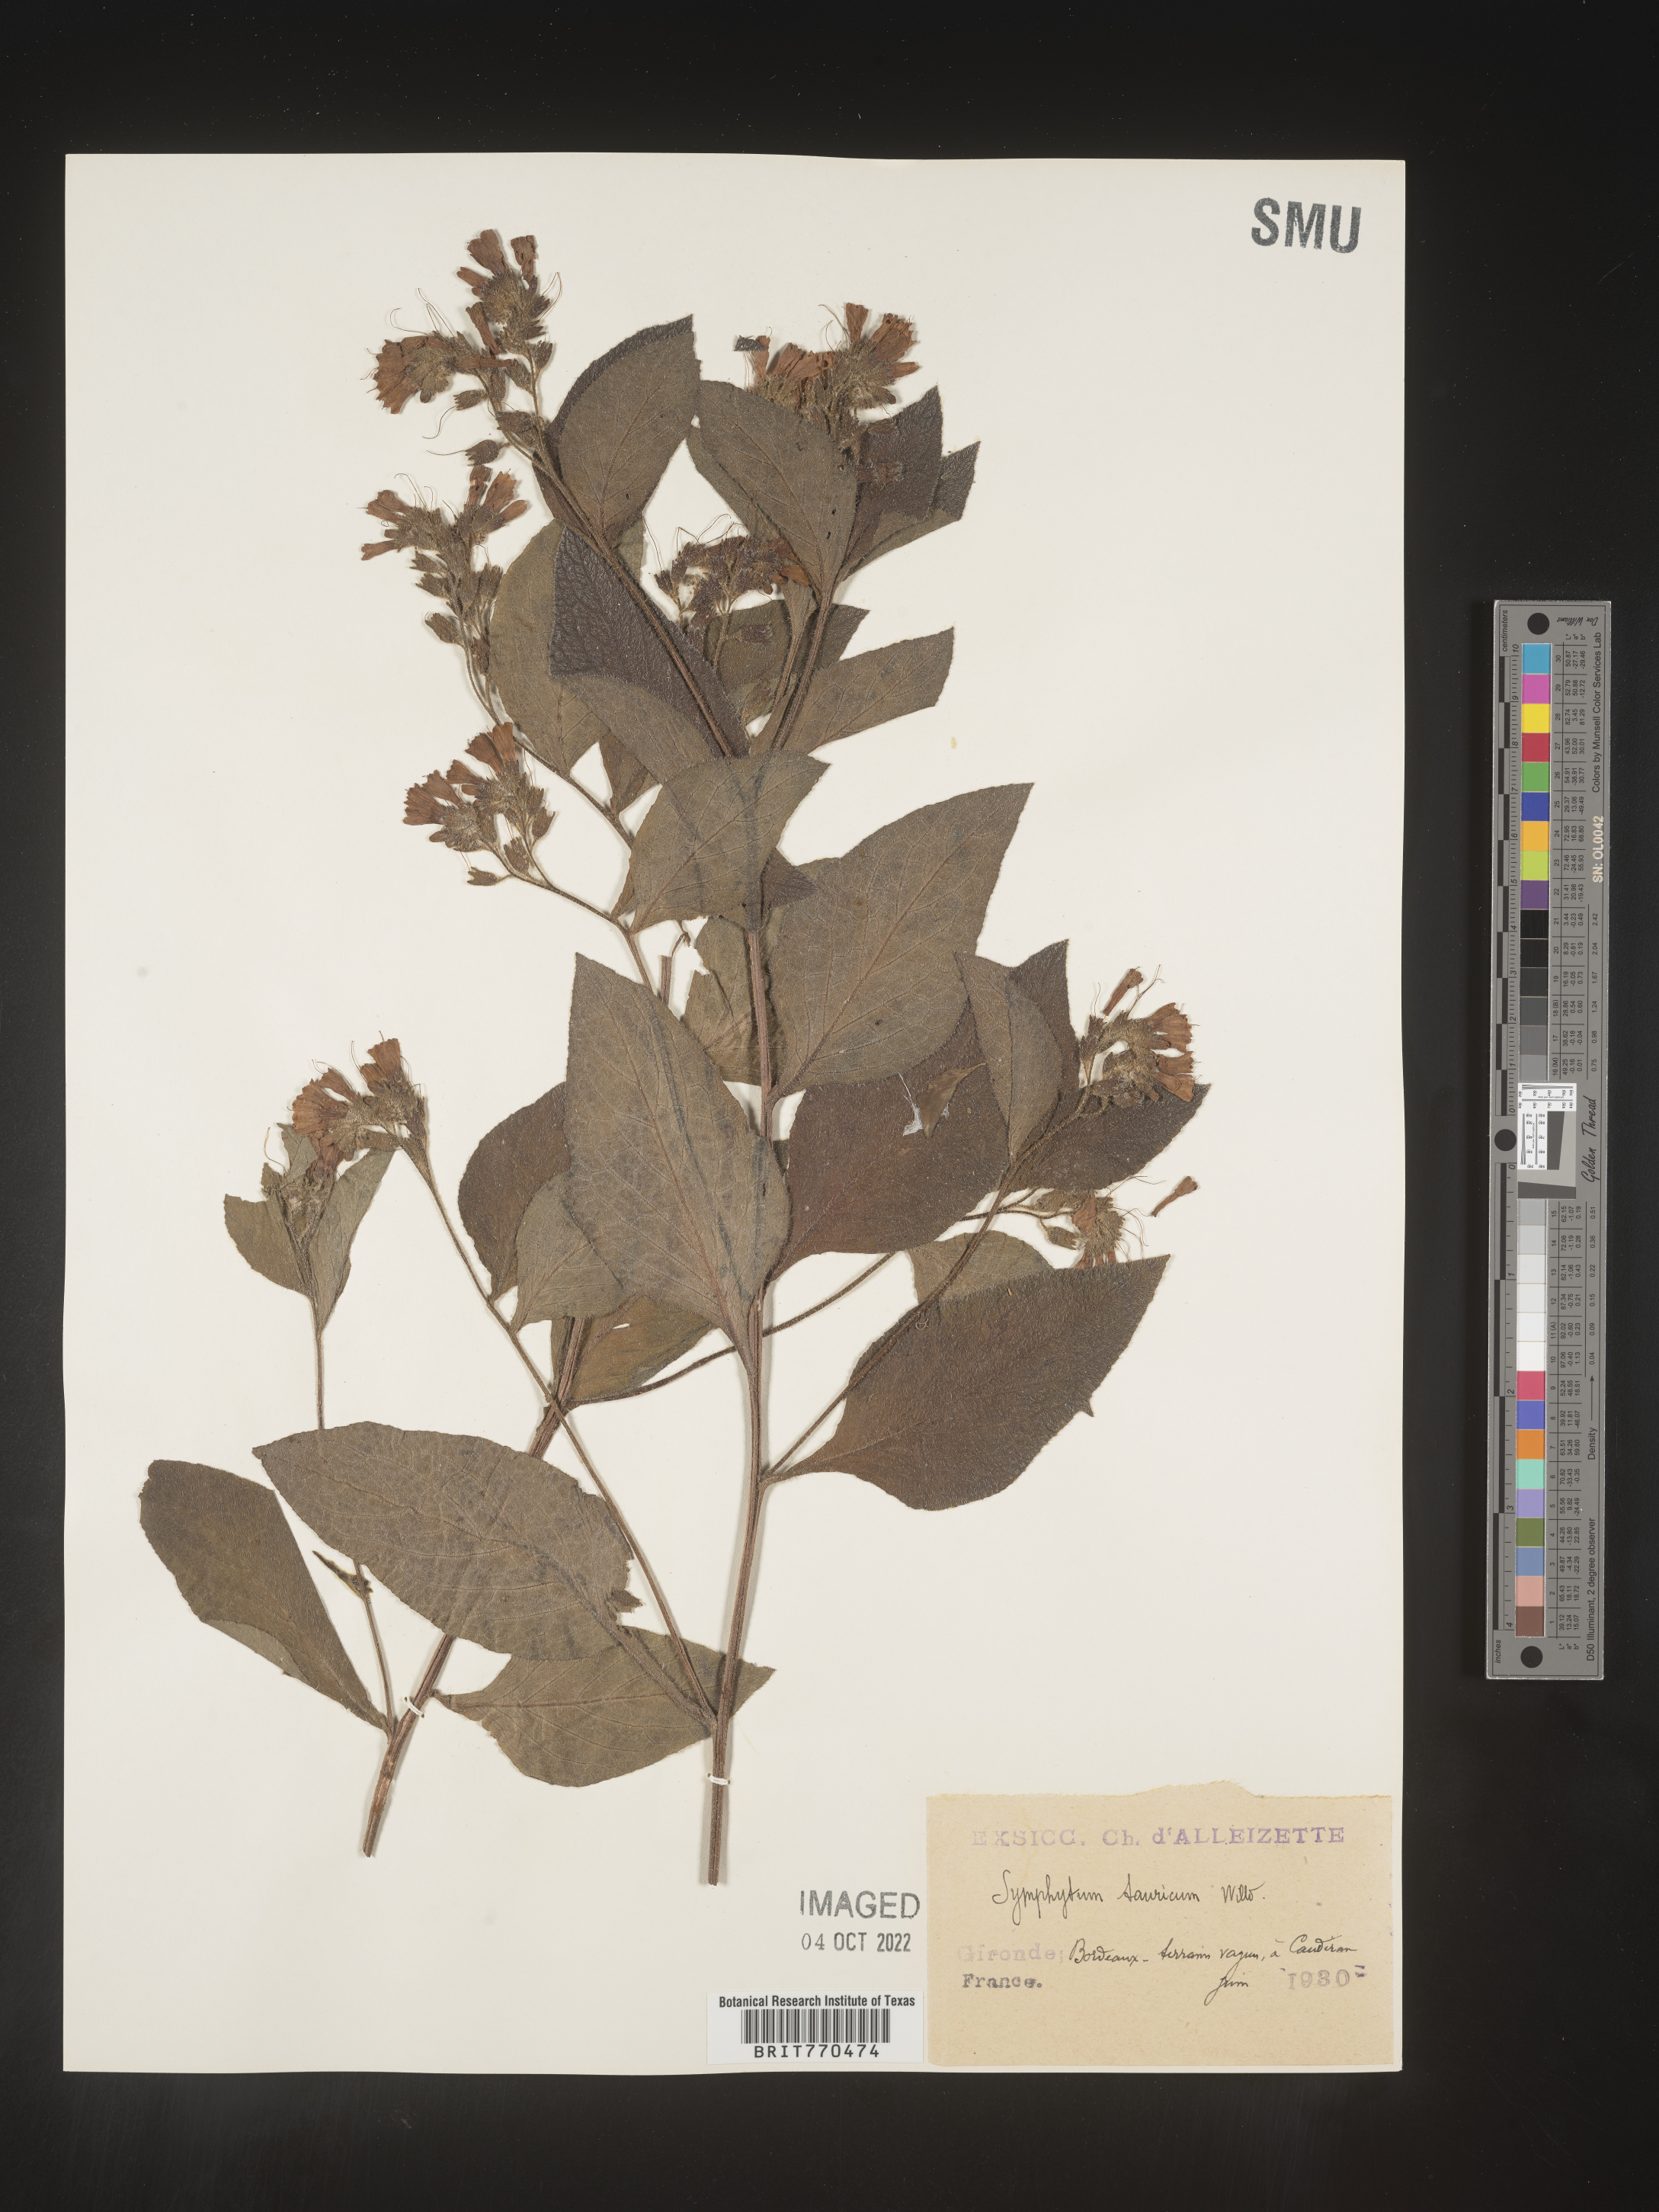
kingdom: Plantae
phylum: Tracheophyta
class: Magnoliopsida
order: Boraginales
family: Boraginaceae
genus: Symphytum
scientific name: Symphytum
